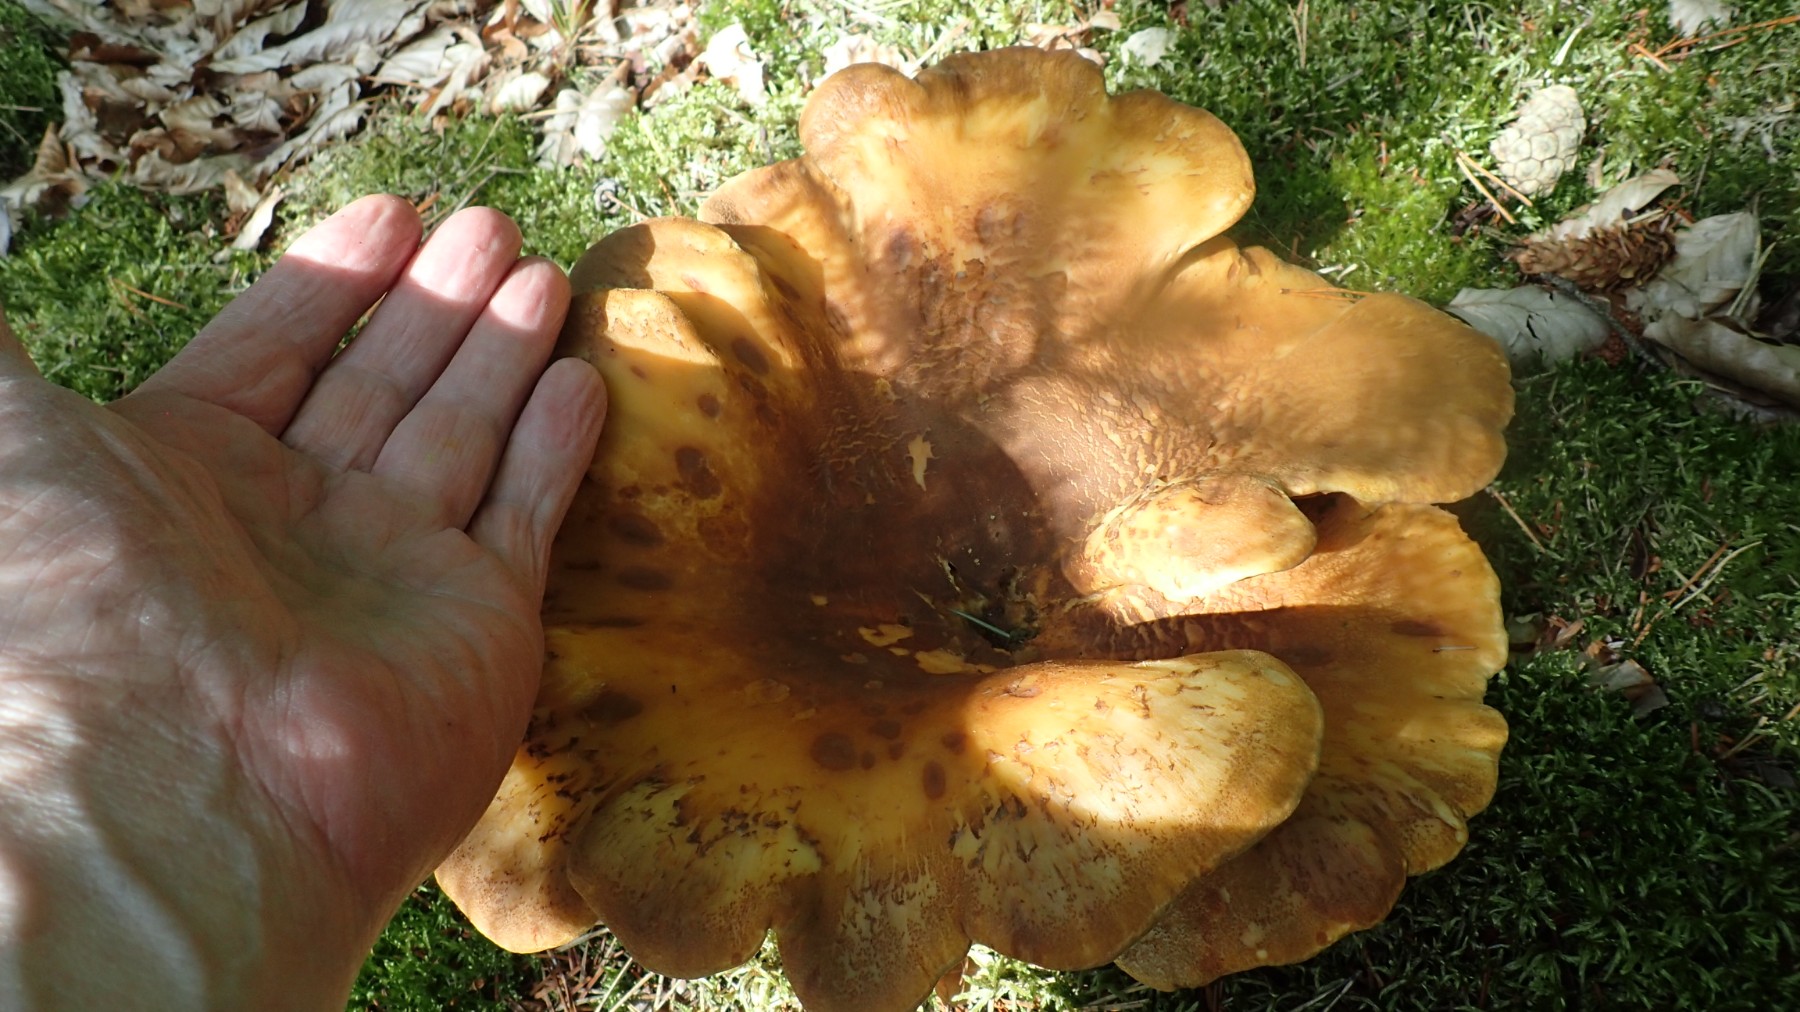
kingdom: Fungi
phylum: Basidiomycota
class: Agaricomycetes
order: Boletales
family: Tapinellaceae
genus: Tapinella
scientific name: Tapinella atrotomentosa
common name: sortfiltet viftesvamp
